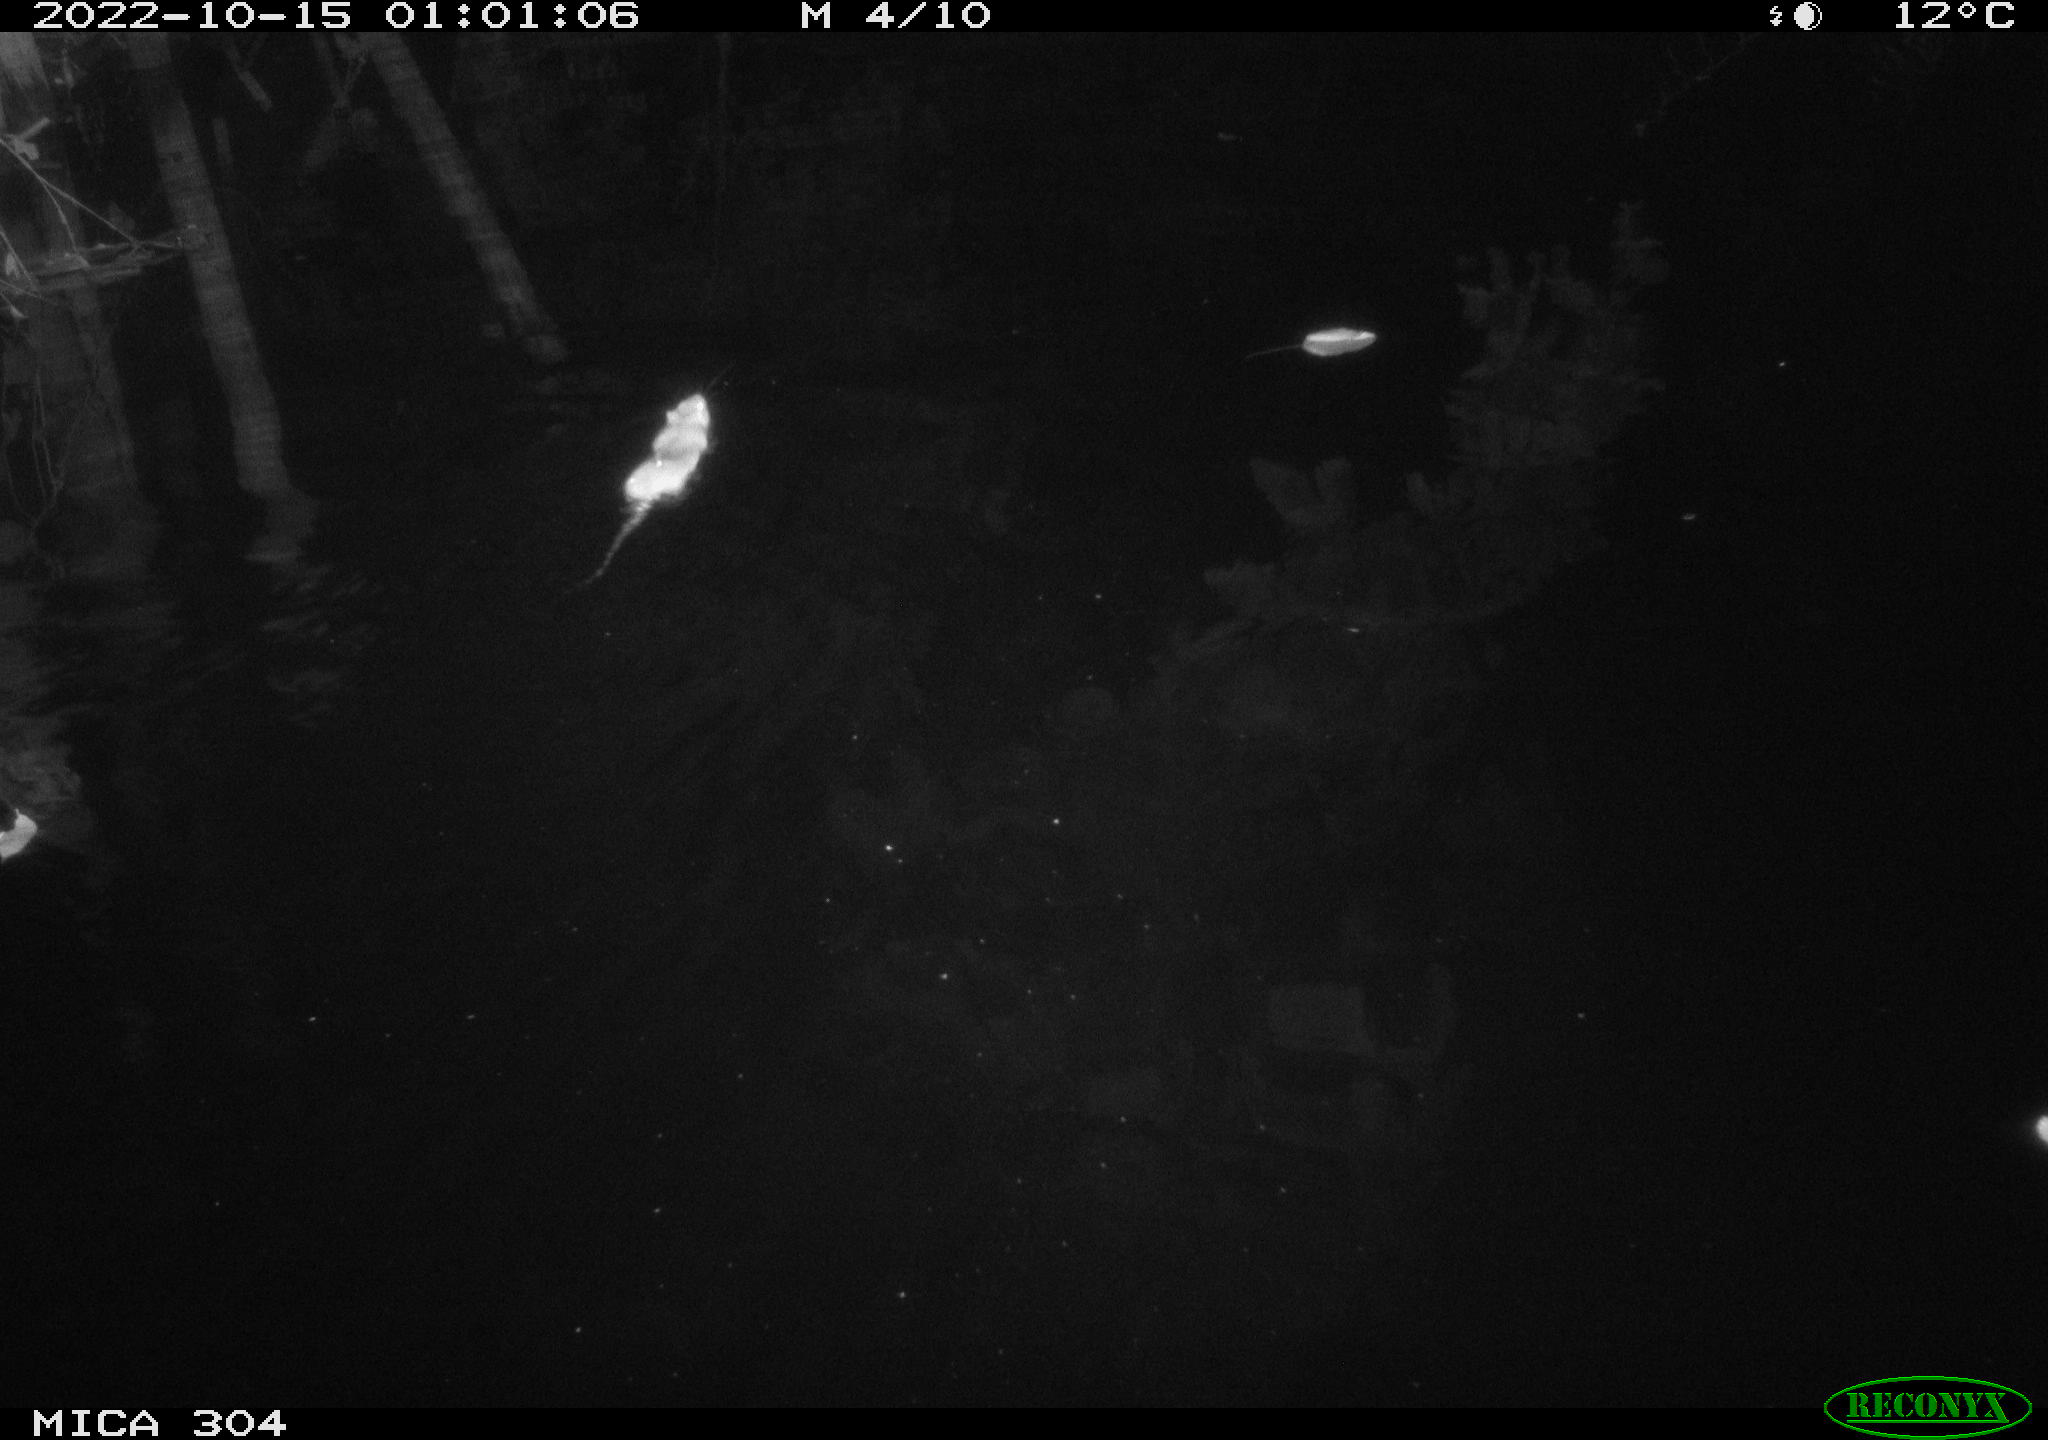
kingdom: Animalia
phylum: Chordata
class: Mammalia
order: Rodentia
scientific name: Rodentia
